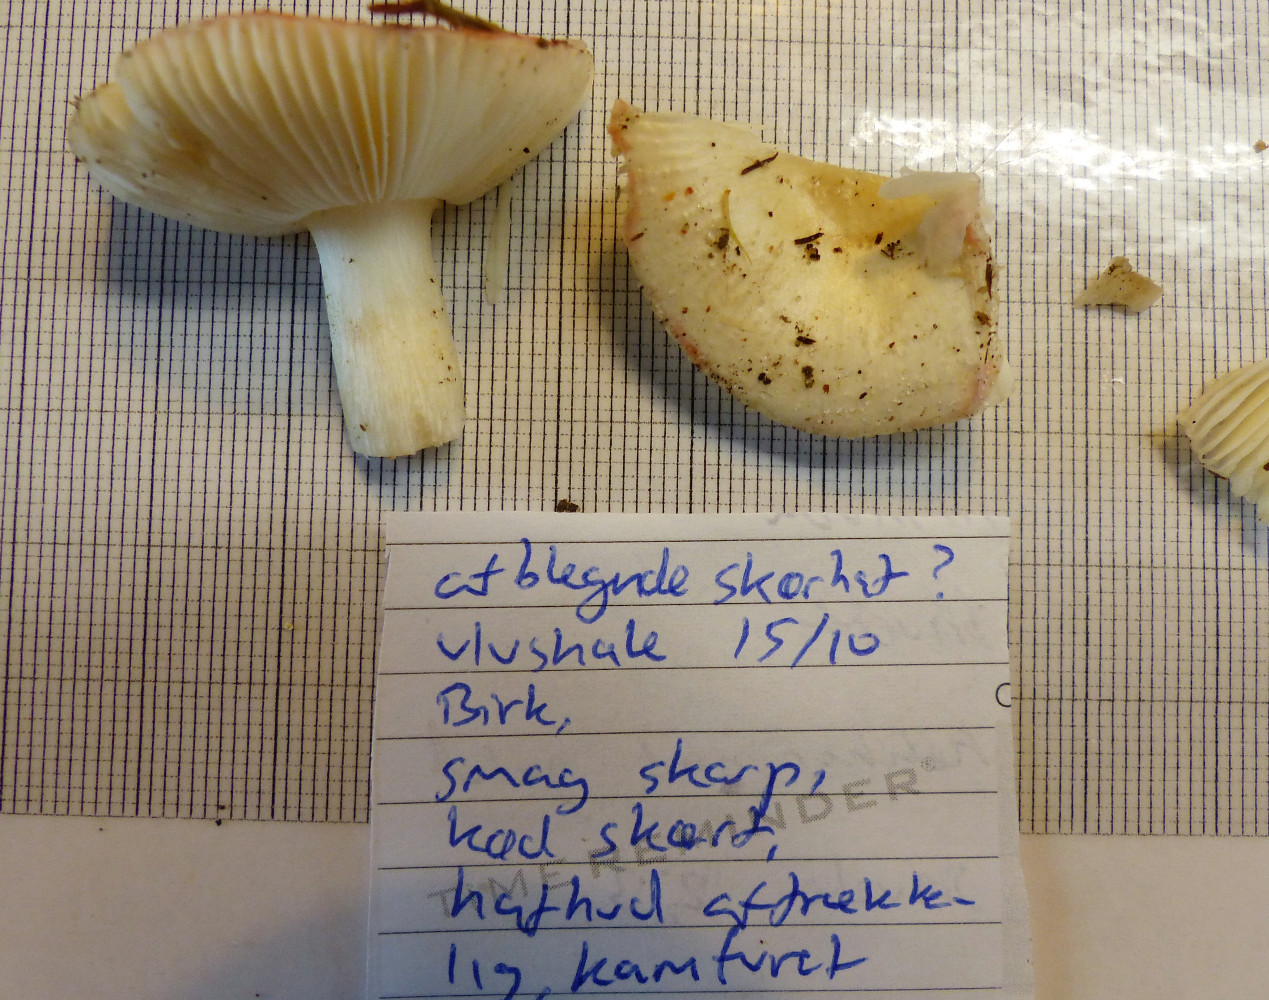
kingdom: Fungi
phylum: Basidiomycota
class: Agaricomycetes
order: Russulales
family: Russulaceae
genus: Russula
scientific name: Russula betularum
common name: bleg gift-skørhat
